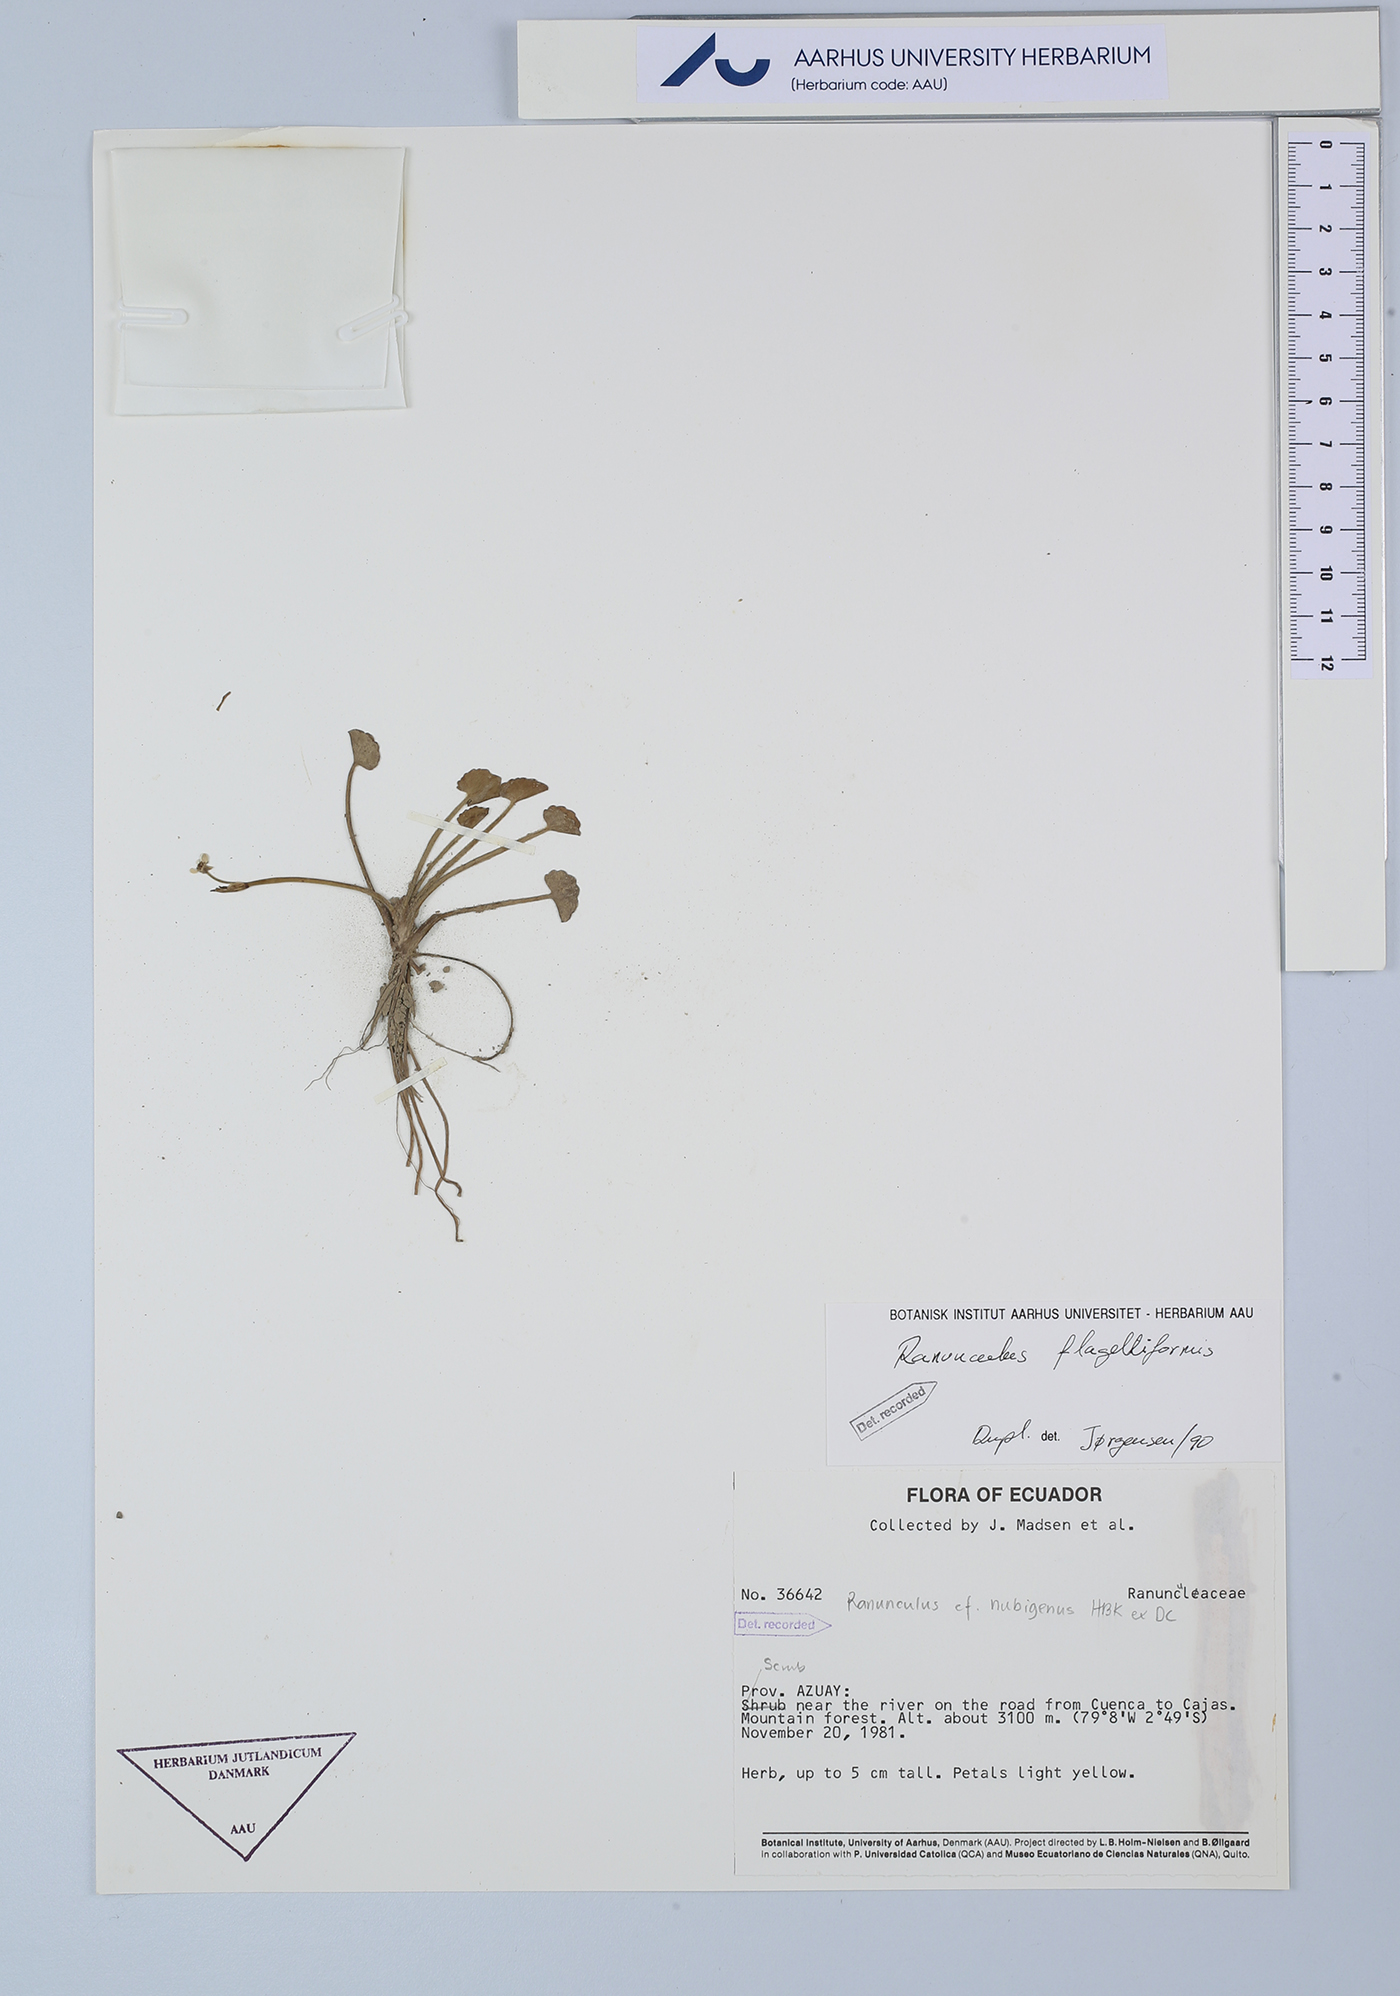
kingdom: Plantae
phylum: Tracheophyta
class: Magnoliopsida
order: Ranunculales
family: Ranunculaceae
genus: Ranunculus
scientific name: Ranunculus flagelliformis
